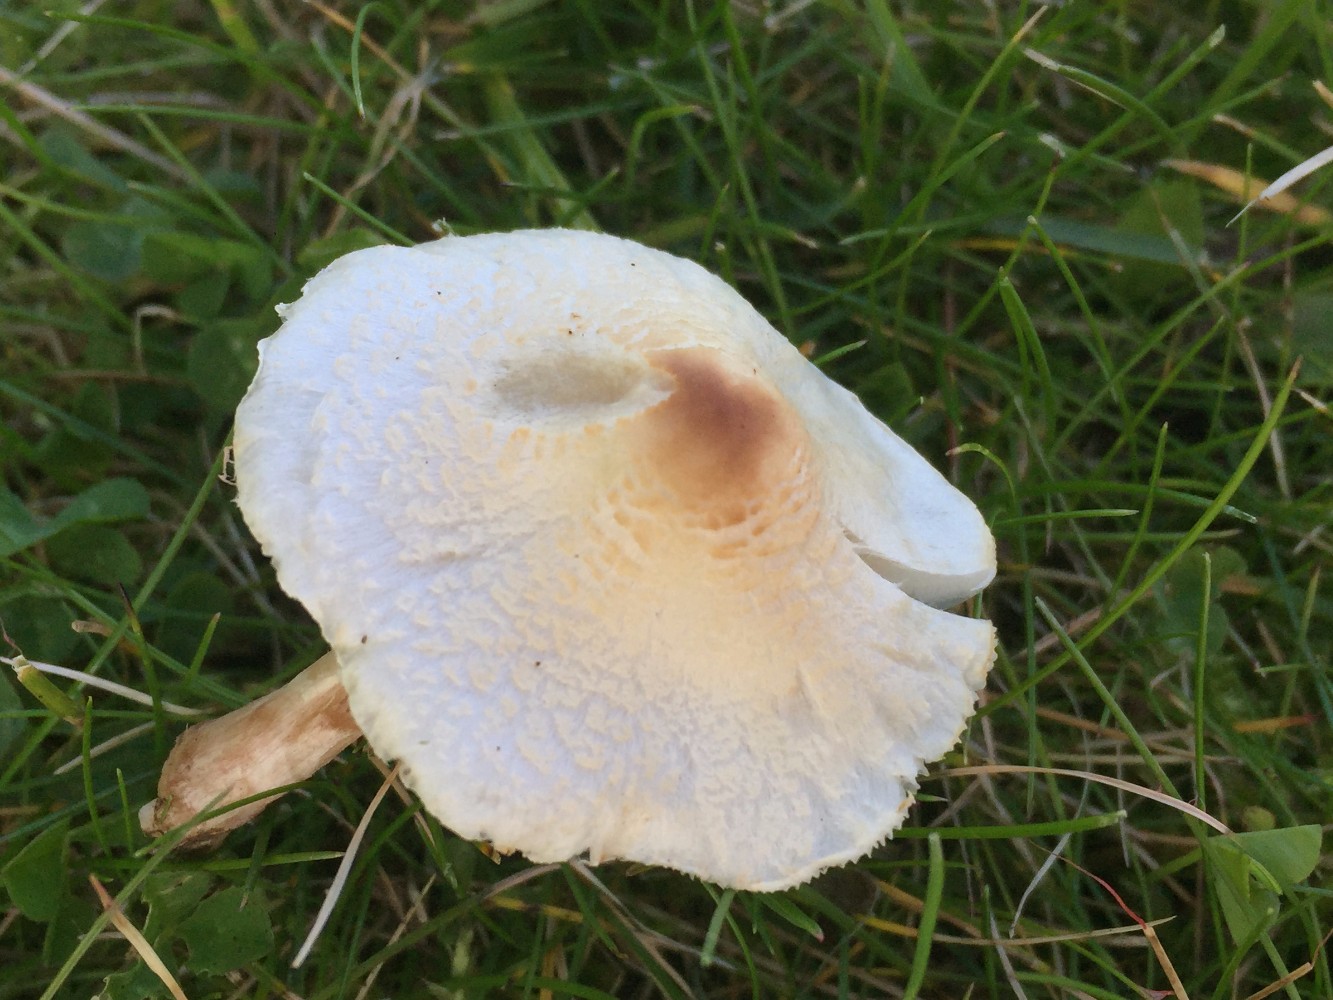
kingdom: Fungi
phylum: Basidiomycota
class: Agaricomycetes
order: Agaricales
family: Agaricaceae
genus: Lepiota
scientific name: Lepiota cristata
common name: stinkende parasolhat
